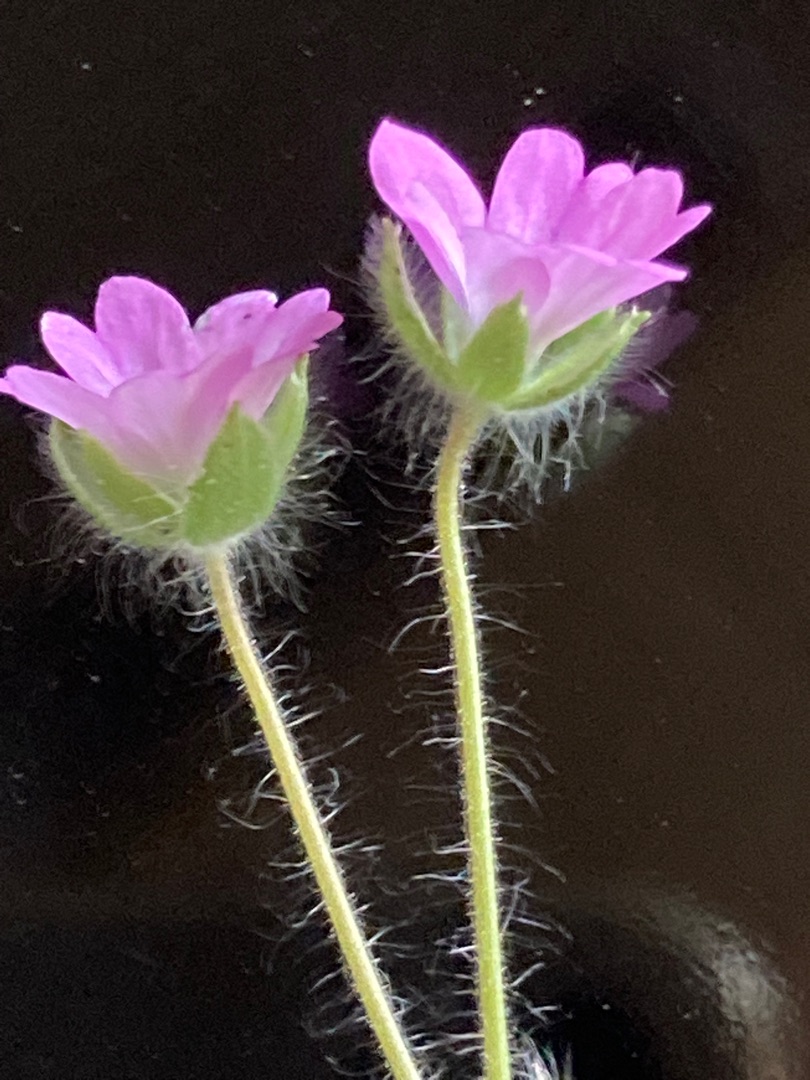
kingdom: Plantae
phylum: Tracheophyta
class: Magnoliopsida
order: Geraniales
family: Geraniaceae
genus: Geranium
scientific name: Geranium molle
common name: Blød storkenæb
